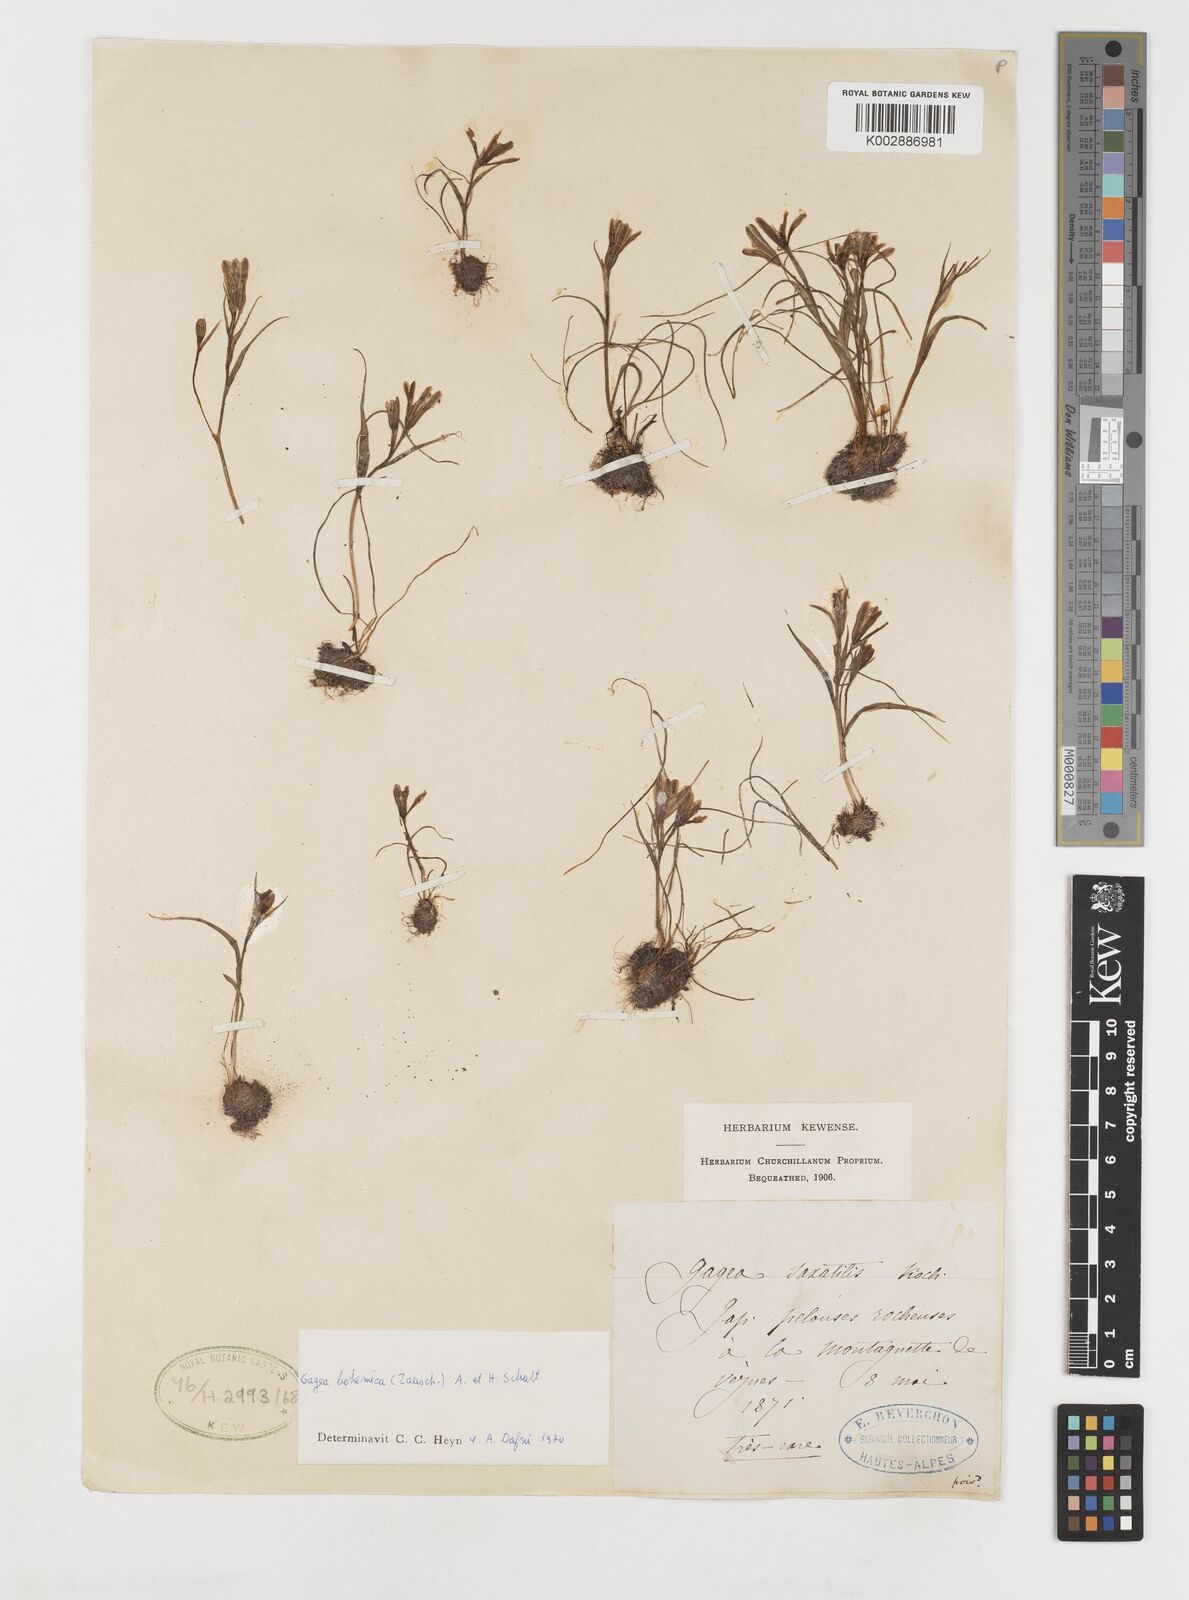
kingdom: Plantae
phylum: Tracheophyta
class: Liliopsida
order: Liliales
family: Liliaceae
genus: Gagea
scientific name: Gagea bohemica
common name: Early star-of-bethlehem
